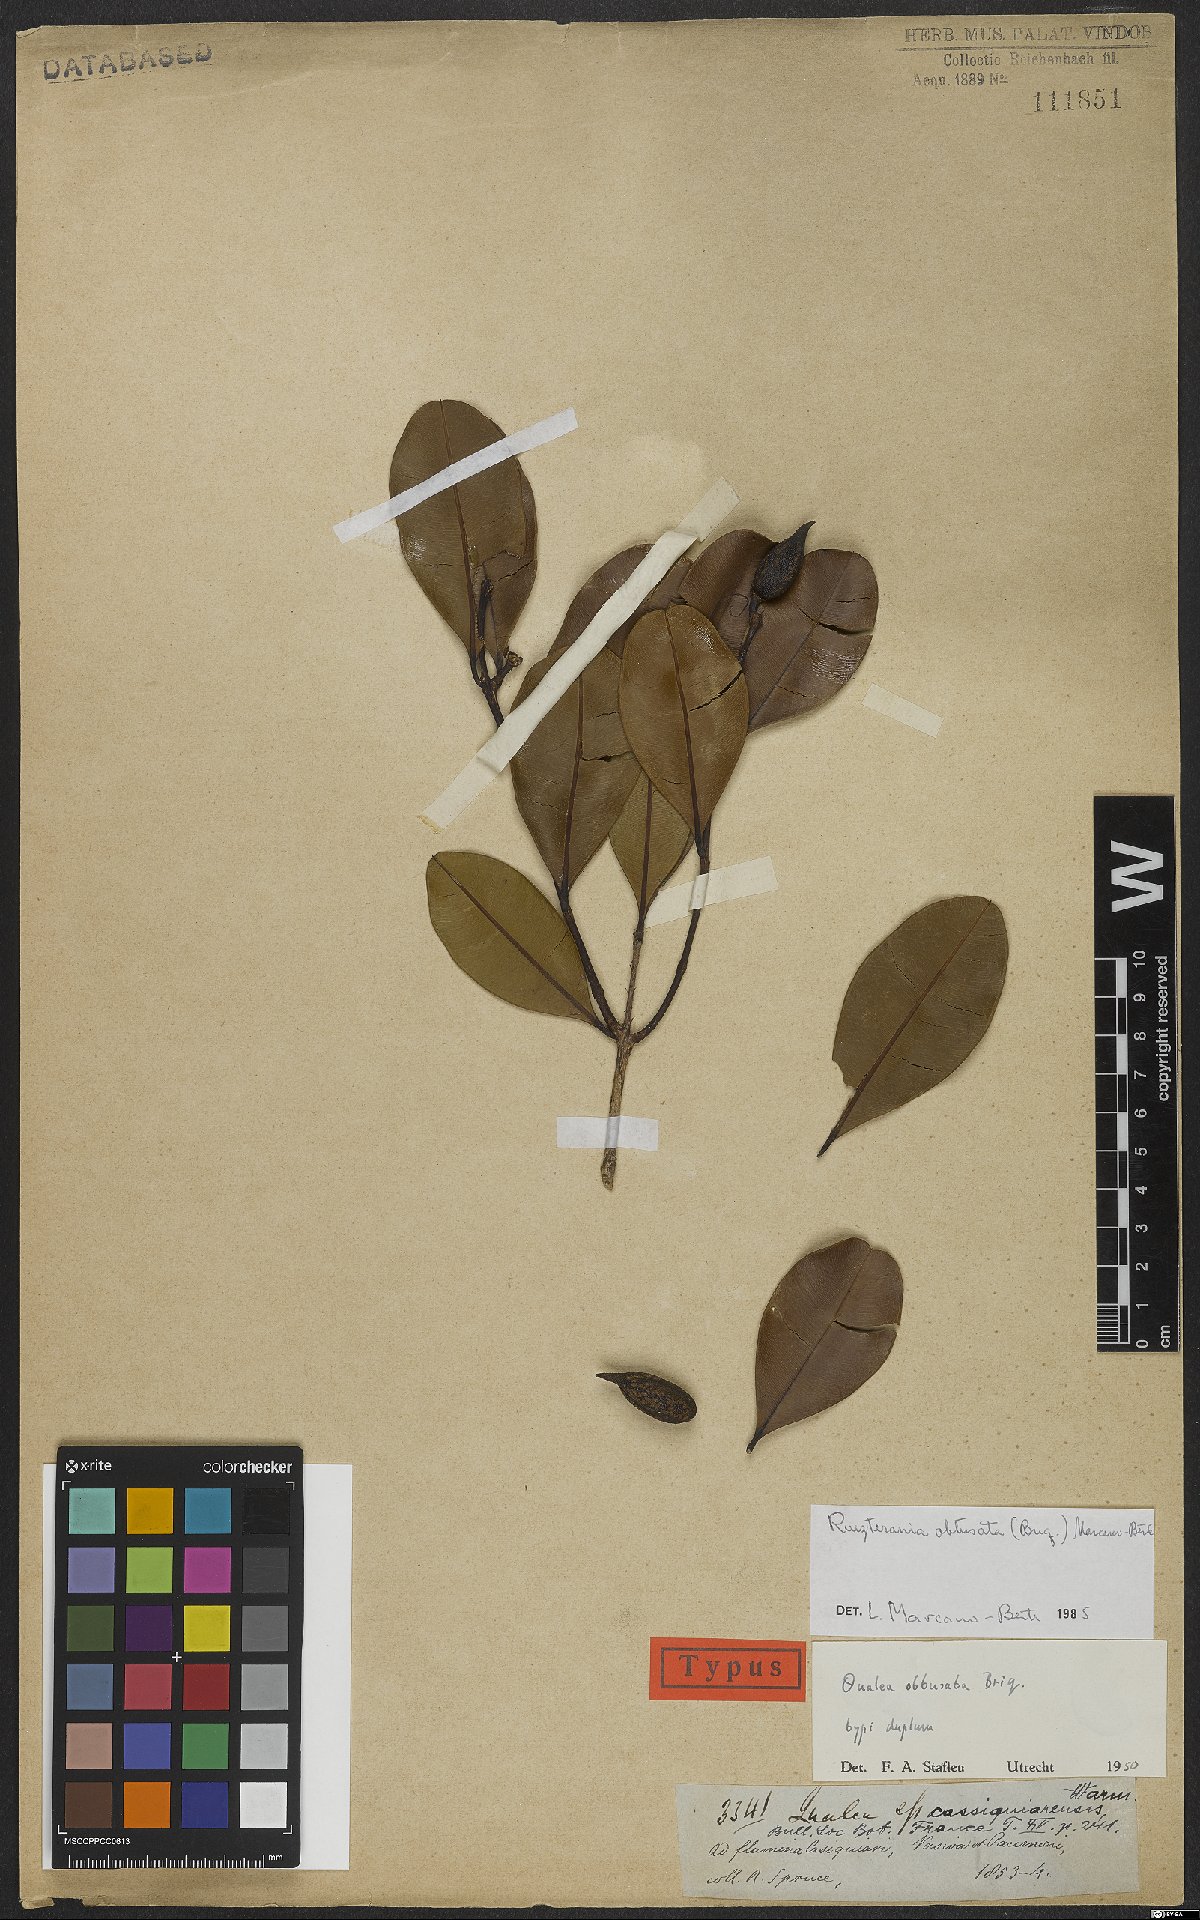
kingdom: Plantae
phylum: Tracheophyta
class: Magnoliopsida
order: Myrtales
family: Vochysiaceae
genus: Ruizterania
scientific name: Ruizterania obtusata
